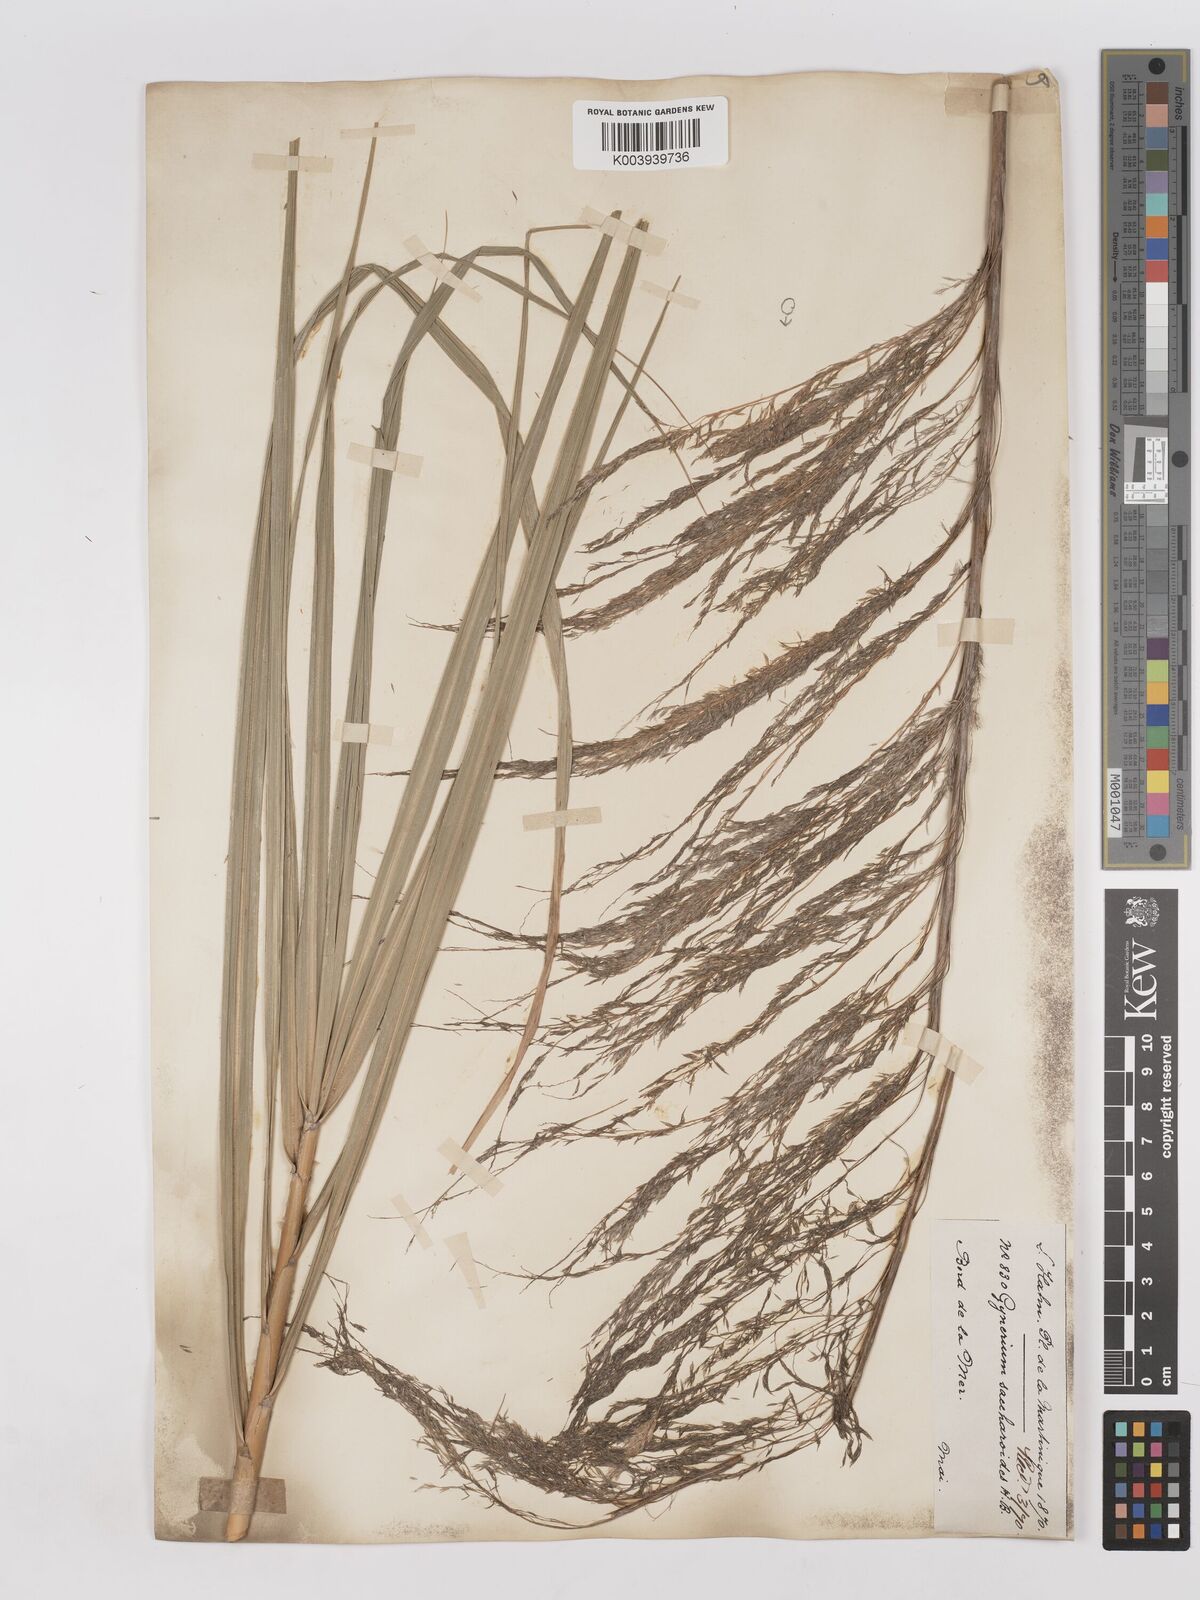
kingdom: Plantae
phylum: Tracheophyta
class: Liliopsida
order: Poales
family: Poaceae
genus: Gynerium
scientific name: Gynerium sagittatum
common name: Wild cane
